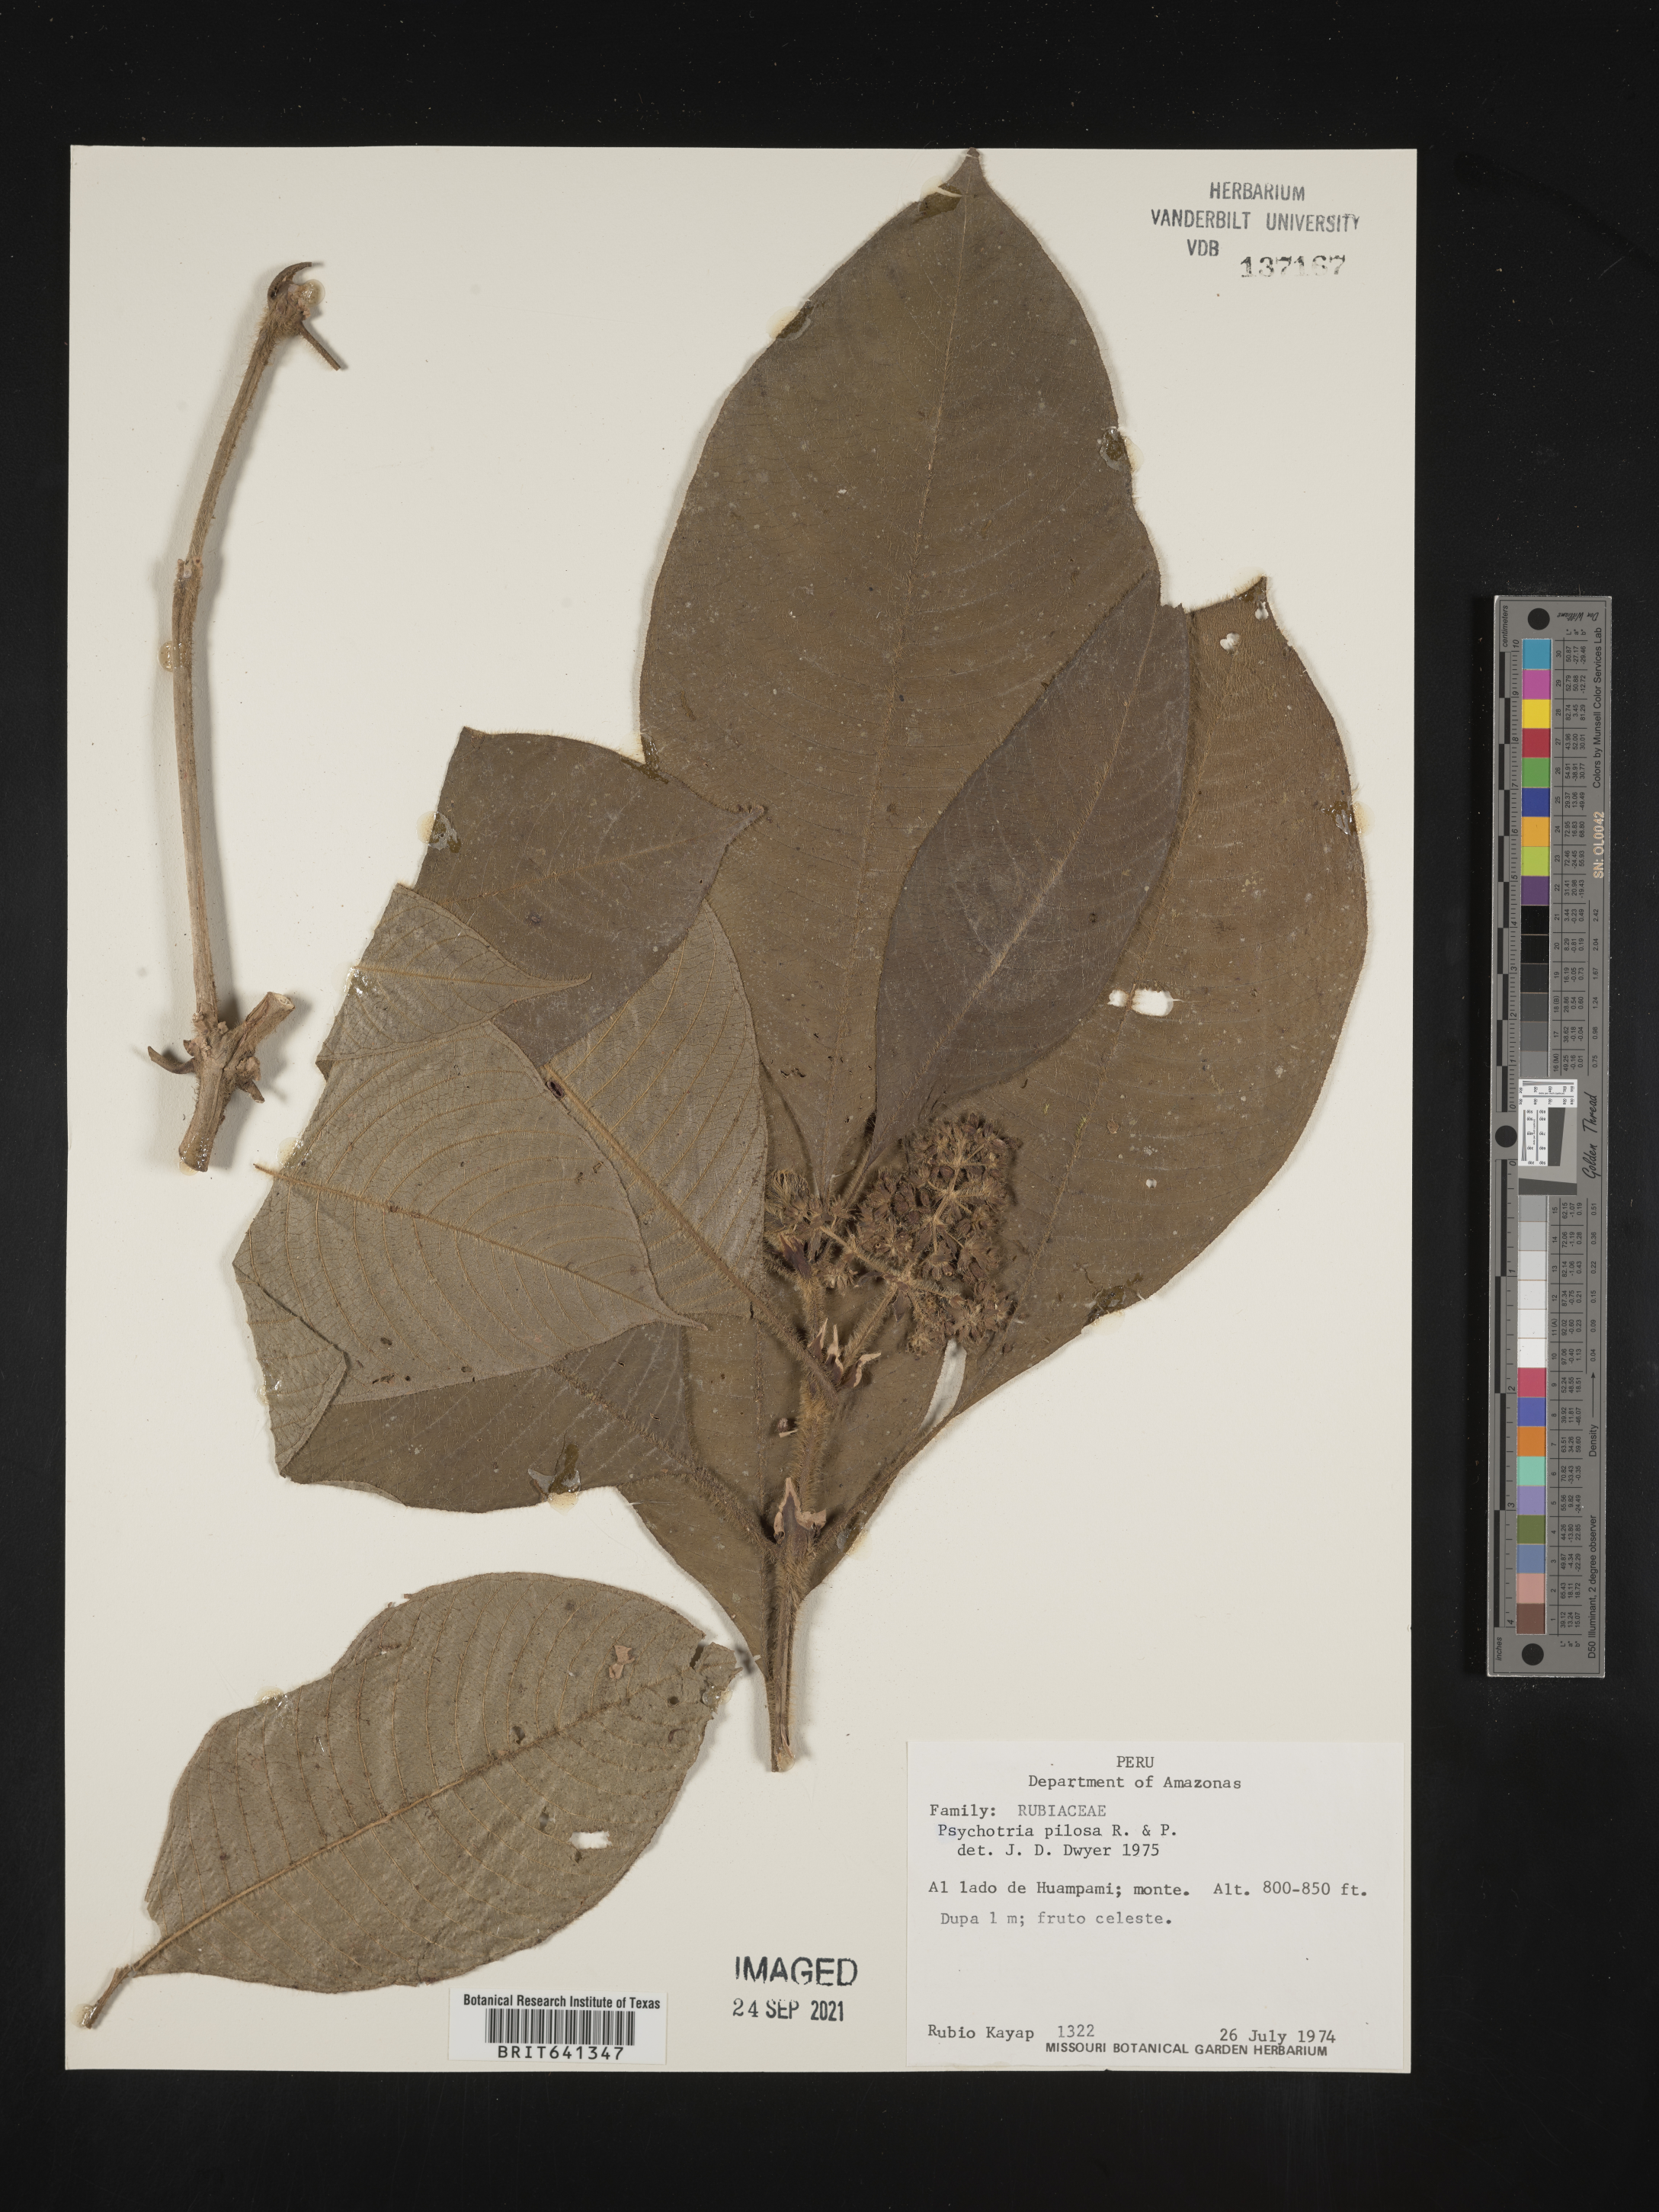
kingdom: Plantae
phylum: Tracheophyta
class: Magnoliopsida
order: Gentianales
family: Rubiaceae
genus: Psychotria
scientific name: Psychotria
